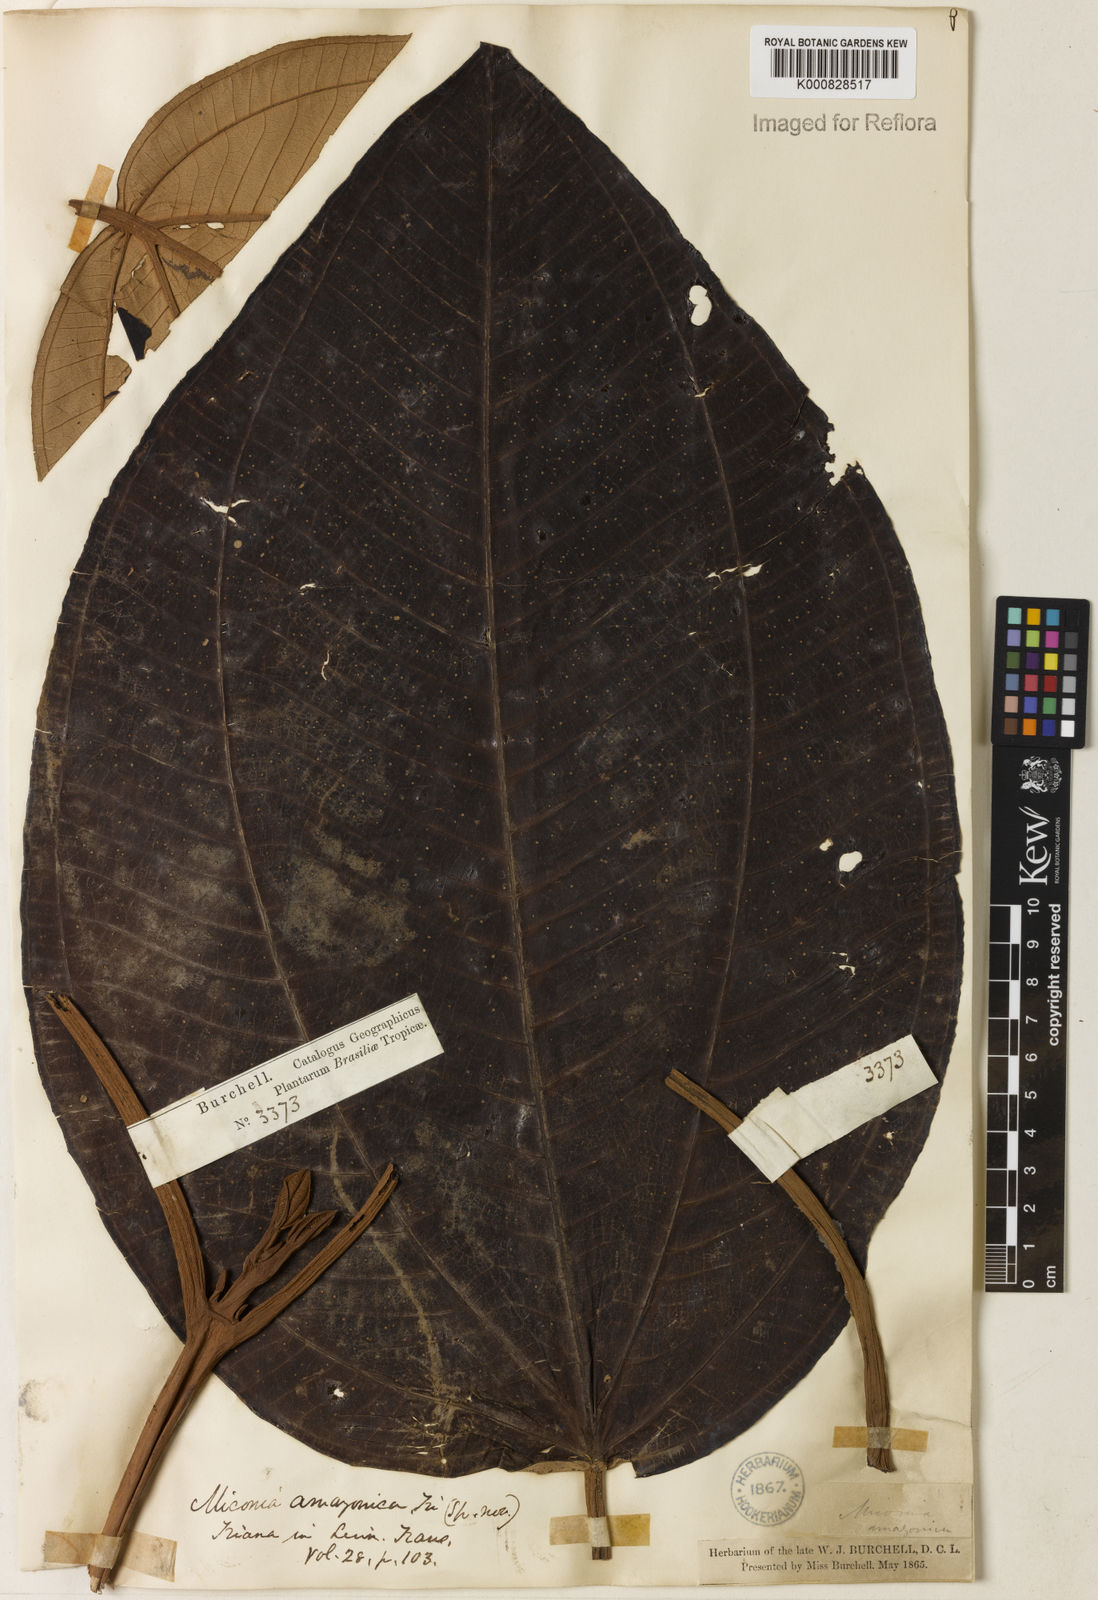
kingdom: Plantae
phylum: Tracheophyta
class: Magnoliopsida
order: Myrtales
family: Melastomataceae
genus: Miconia
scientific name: Miconia amazonica
